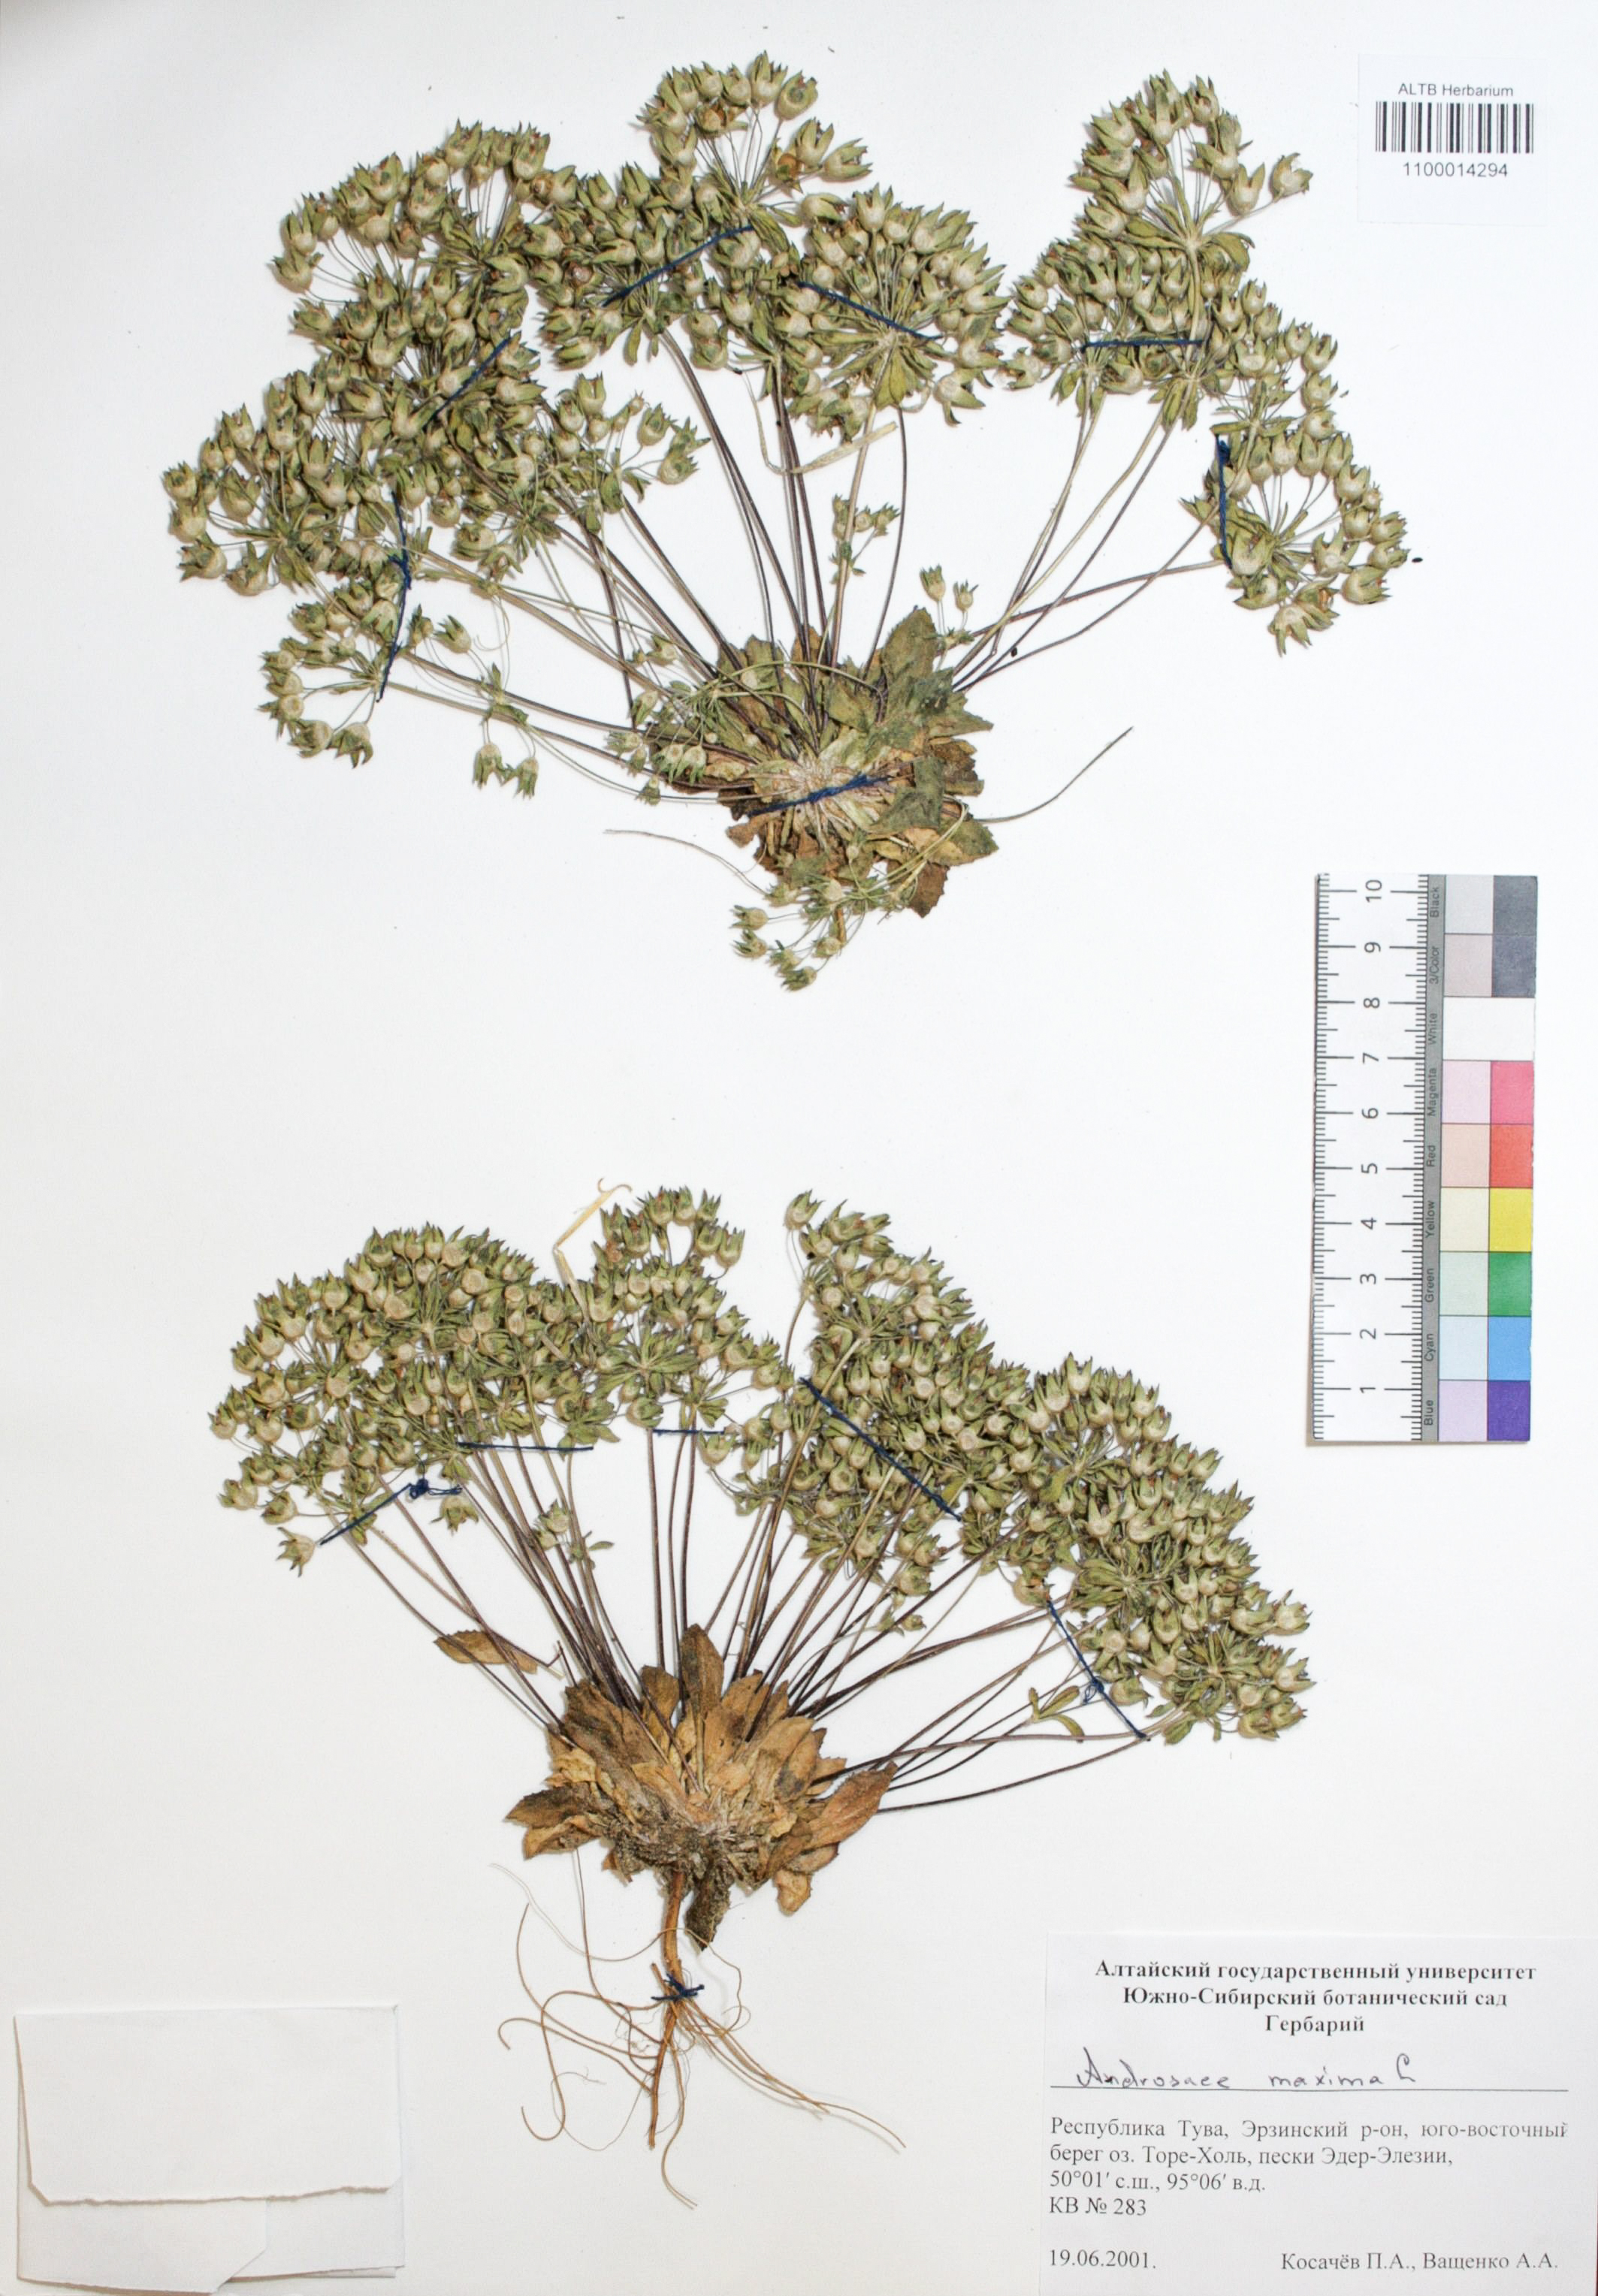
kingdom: Plantae
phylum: Tracheophyta
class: Magnoliopsida
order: Ericales
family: Primulaceae
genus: Androsace
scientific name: Androsace maxima
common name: Annual androsace
